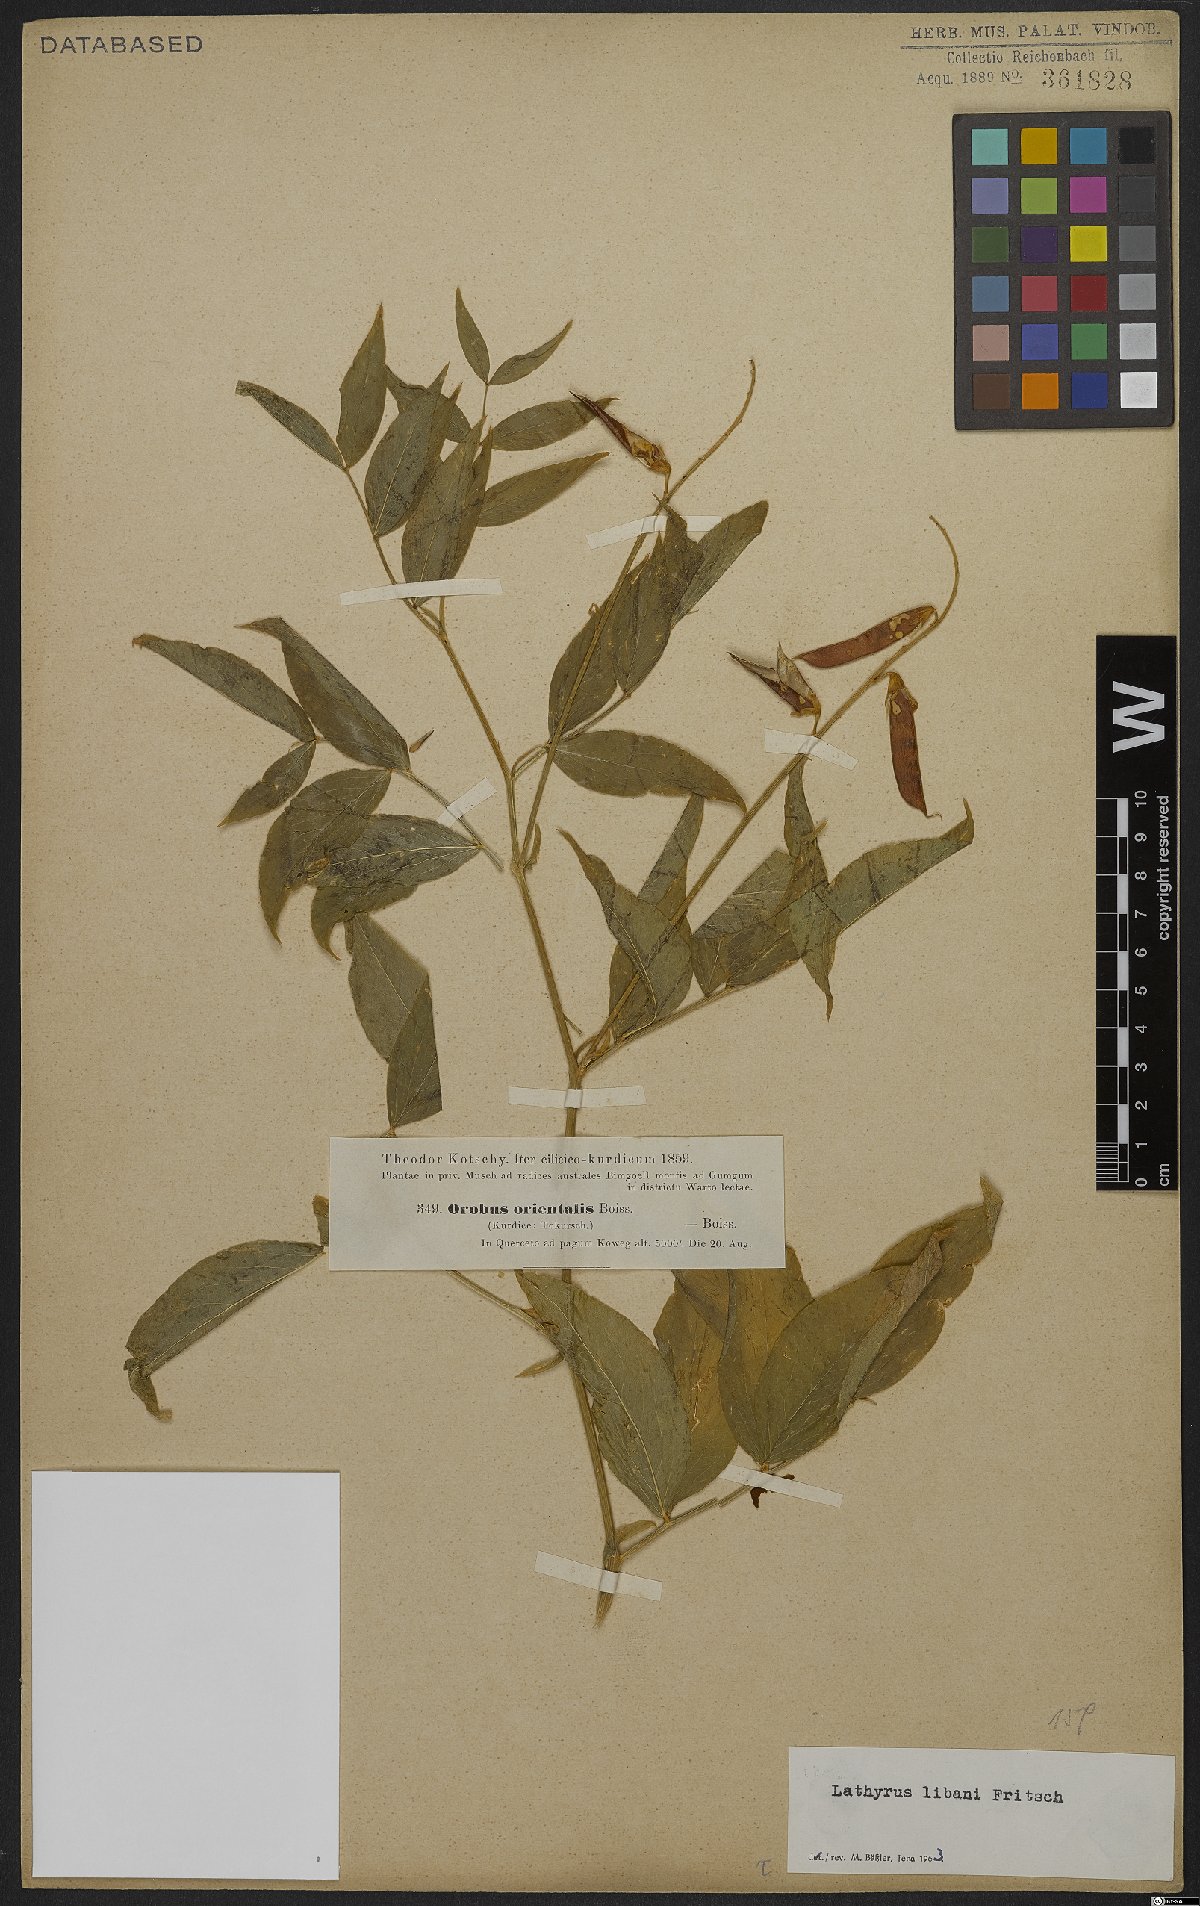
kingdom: Plantae
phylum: Tracheophyta
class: Magnoliopsida
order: Fabales
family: Fabaceae
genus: Lathyrus
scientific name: Lathyrus libani
